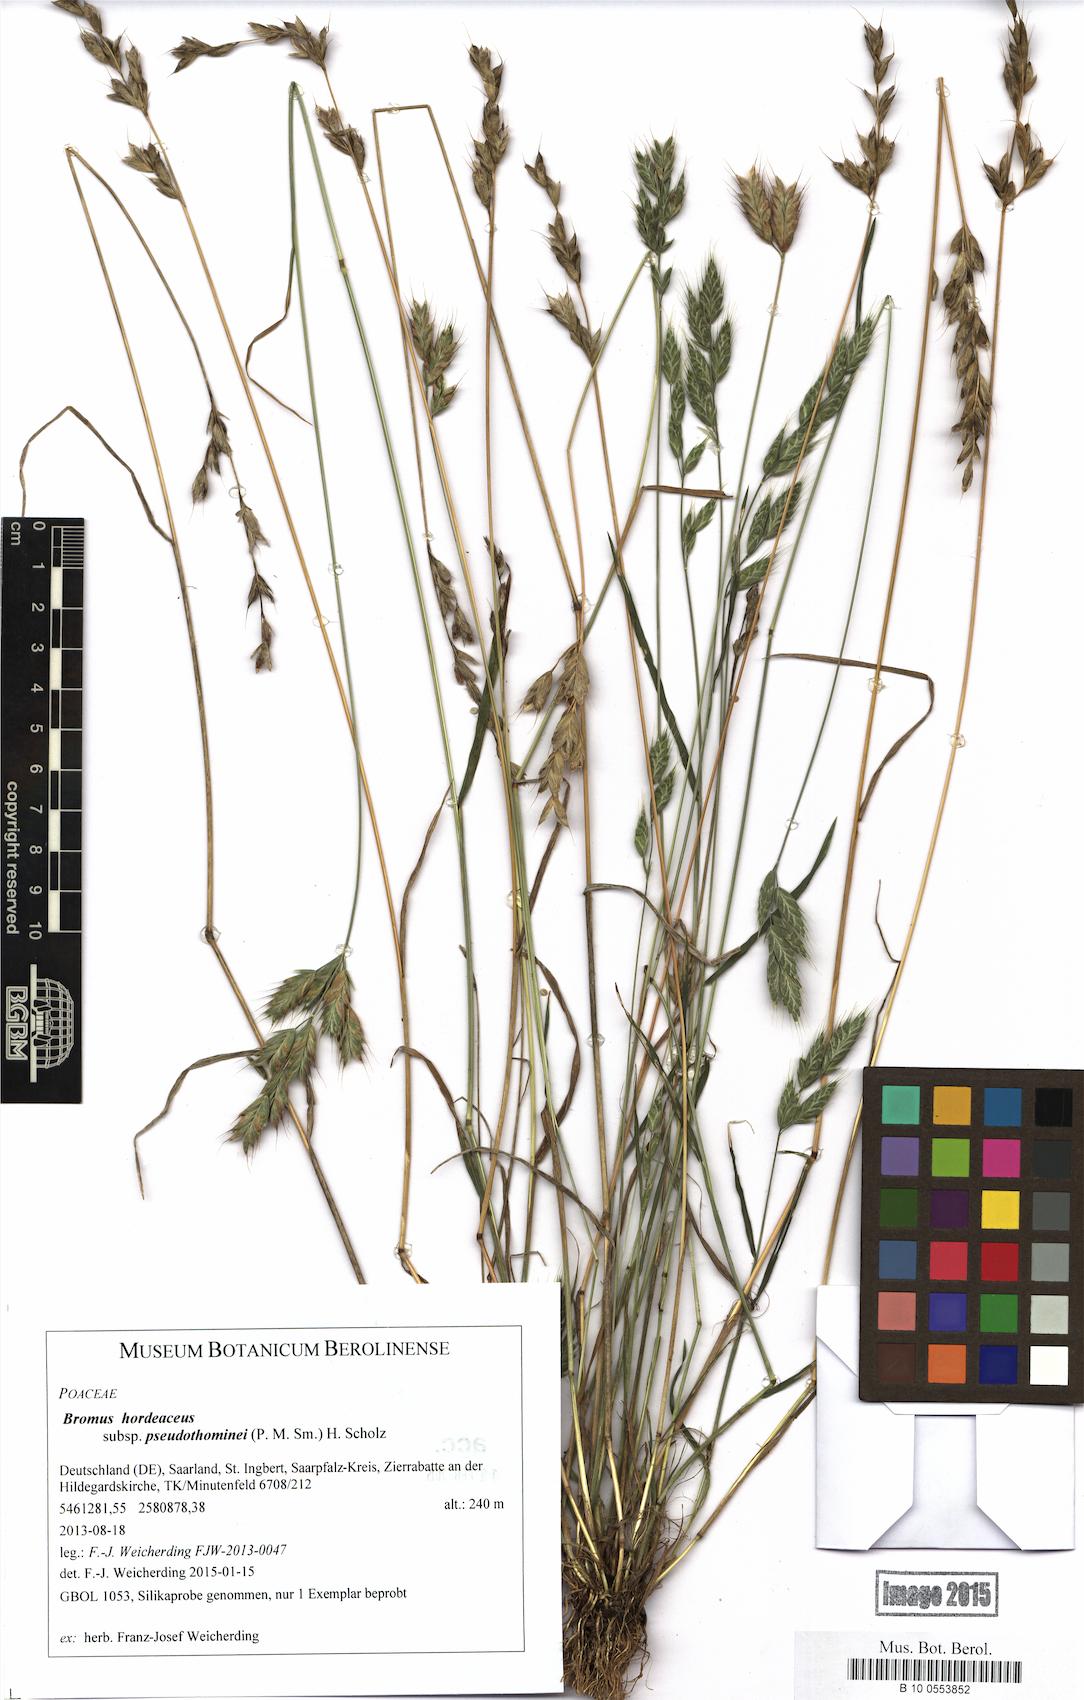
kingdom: Plantae
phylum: Tracheophyta
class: Liliopsida
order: Poales
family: Poaceae
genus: Bromus
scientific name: Bromus ferronii
